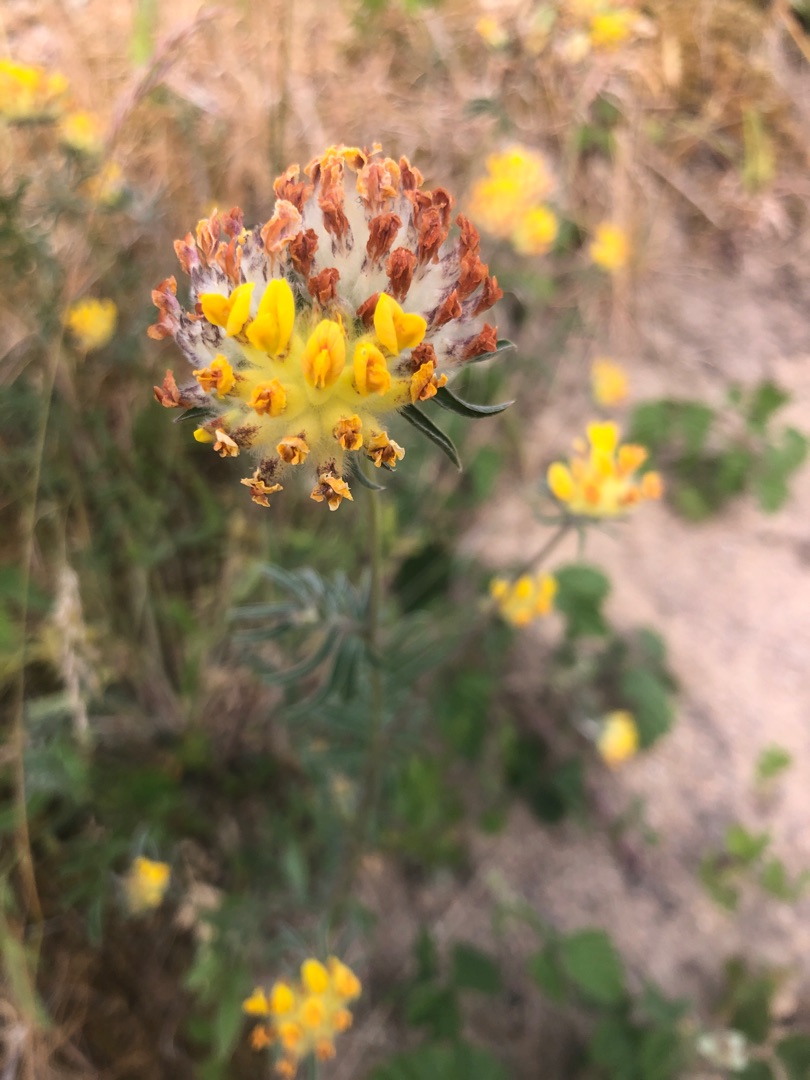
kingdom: Plantae
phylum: Tracheophyta
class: Magnoliopsida
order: Fabales
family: Fabaceae
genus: Anthyllis
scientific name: Anthyllis vulneraria
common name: Rundbælg
